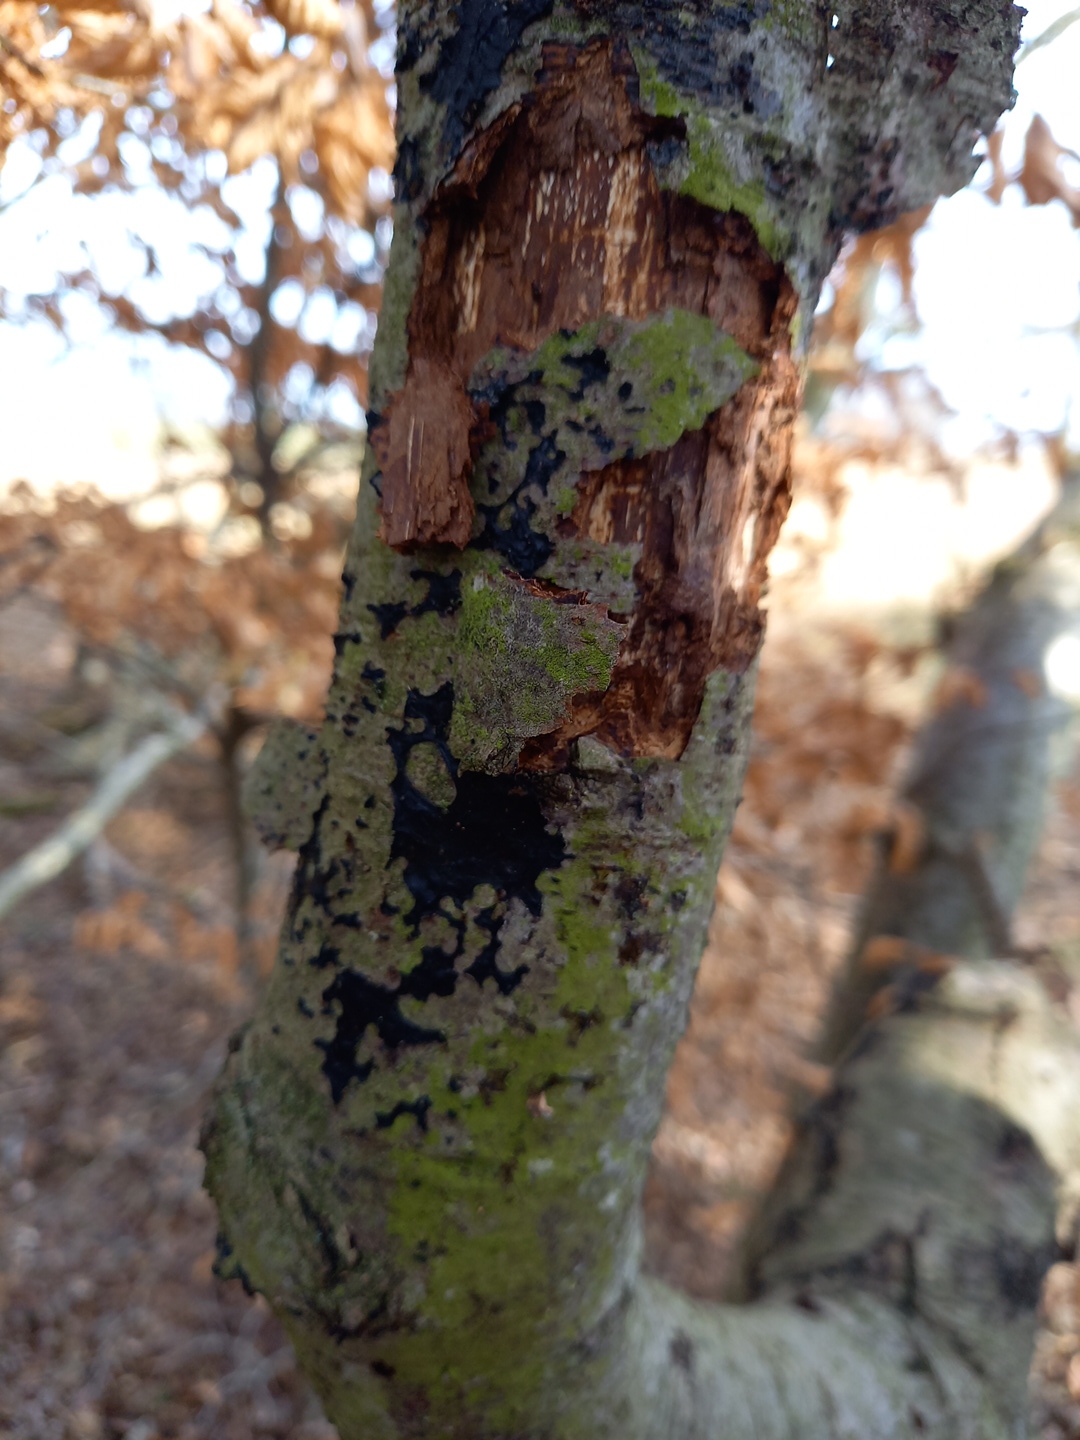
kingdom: Fungi
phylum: Basidiomycota
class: Agaricomycetes
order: Auriculariales
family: Auriculariaceae
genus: Exidia
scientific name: Exidia nigricans
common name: almindelig bævretop
